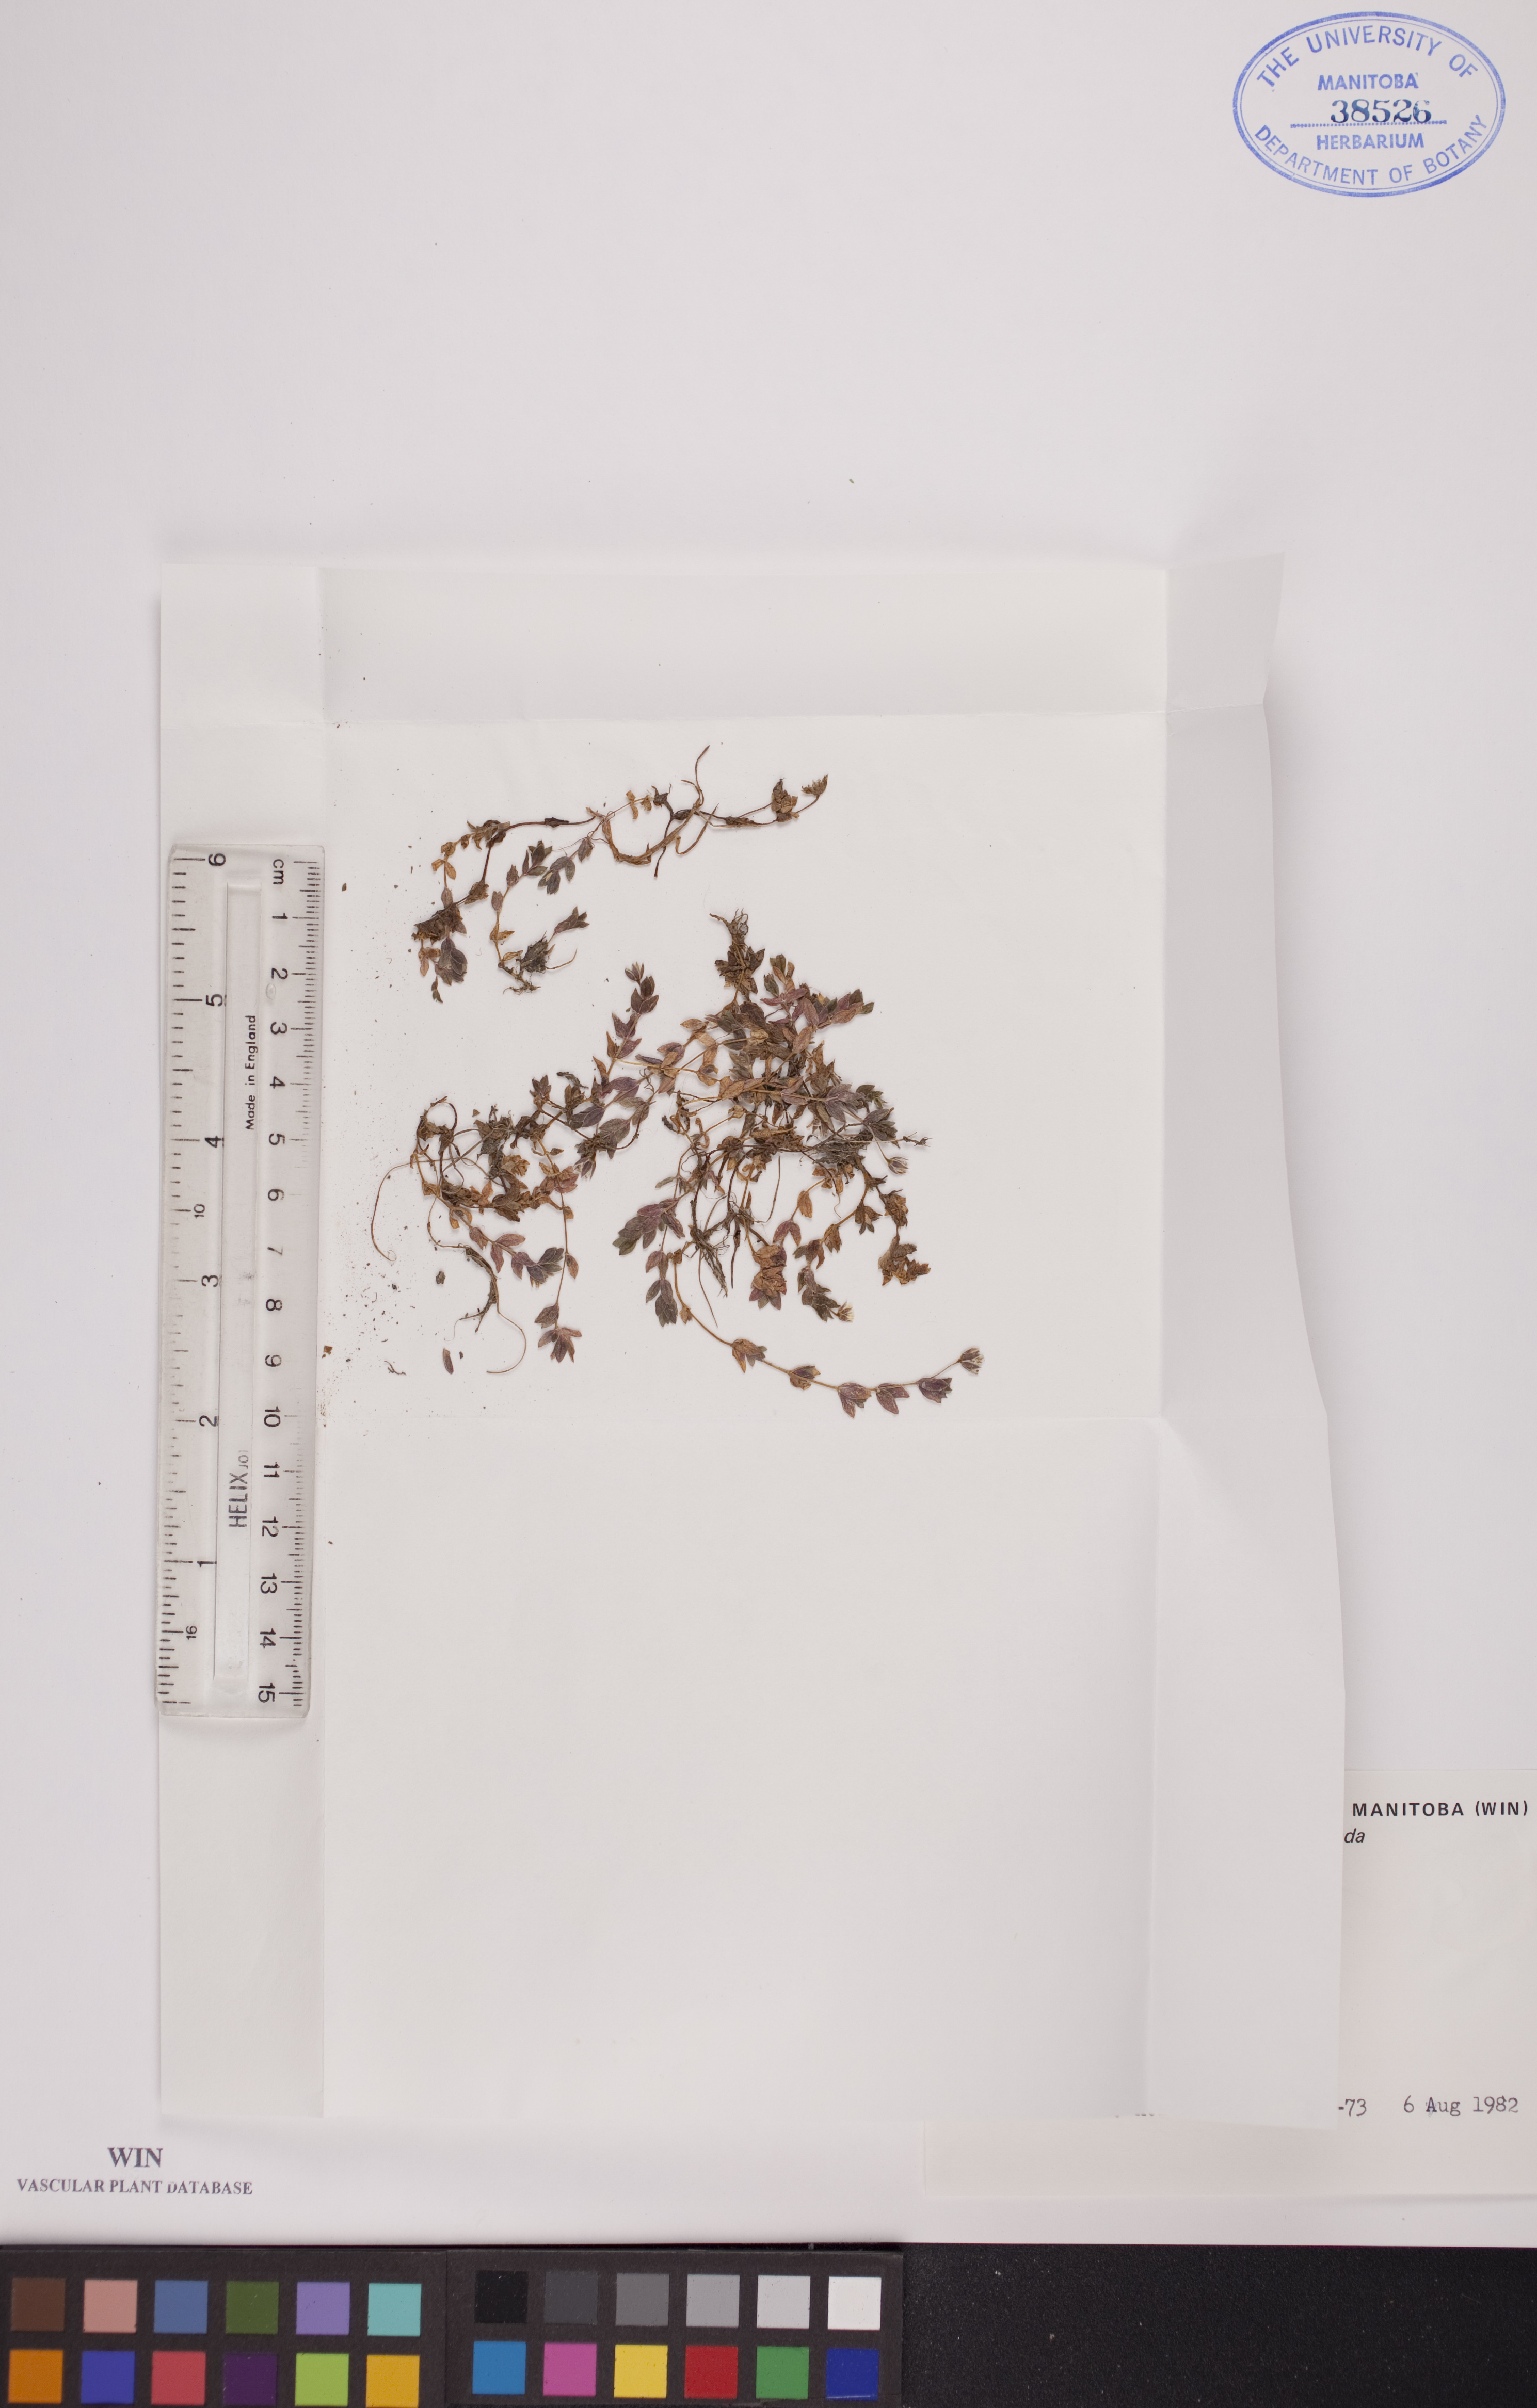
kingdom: Plantae
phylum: Tracheophyta
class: Magnoliopsida
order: Caryophyllales
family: Caryophyllaceae
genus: Stellaria
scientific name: Stellaria humifusa
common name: Creeping starwort
